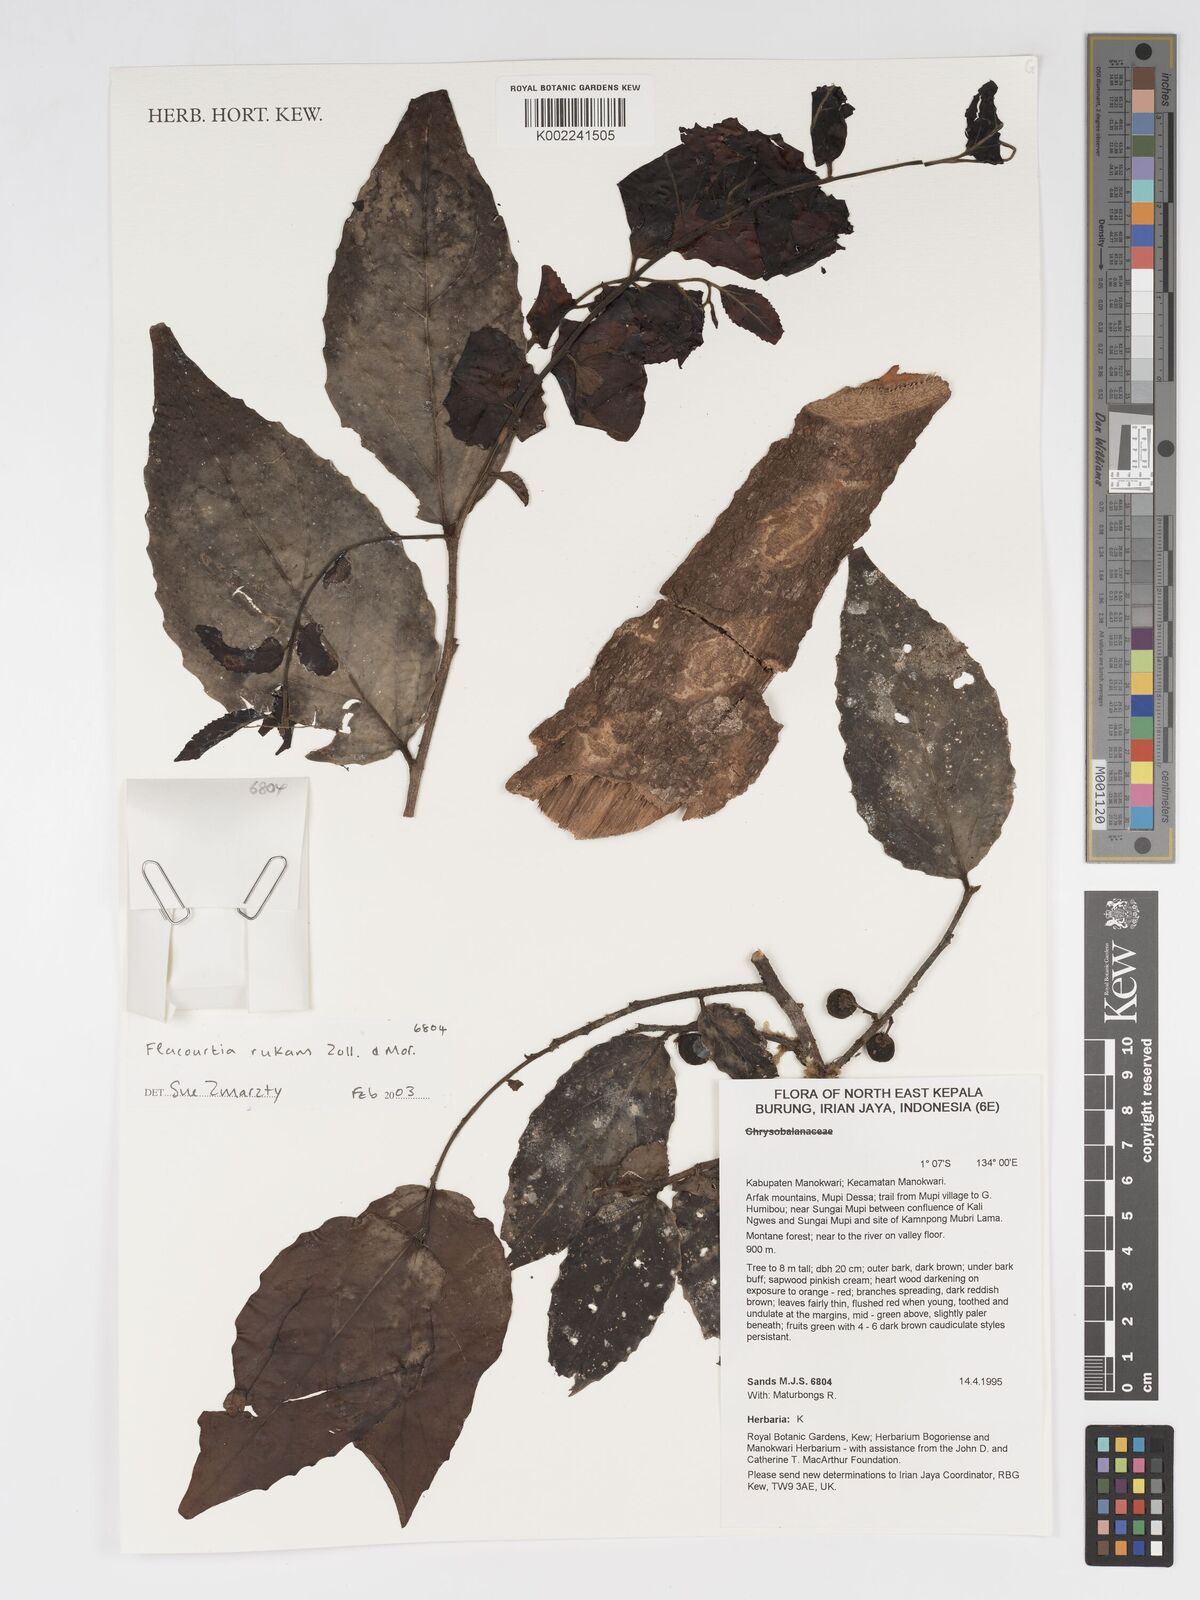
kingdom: Plantae
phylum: Tracheophyta
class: Magnoliopsida
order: Malpighiales
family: Salicaceae
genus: Flacourtia
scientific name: Flacourtia rukam
